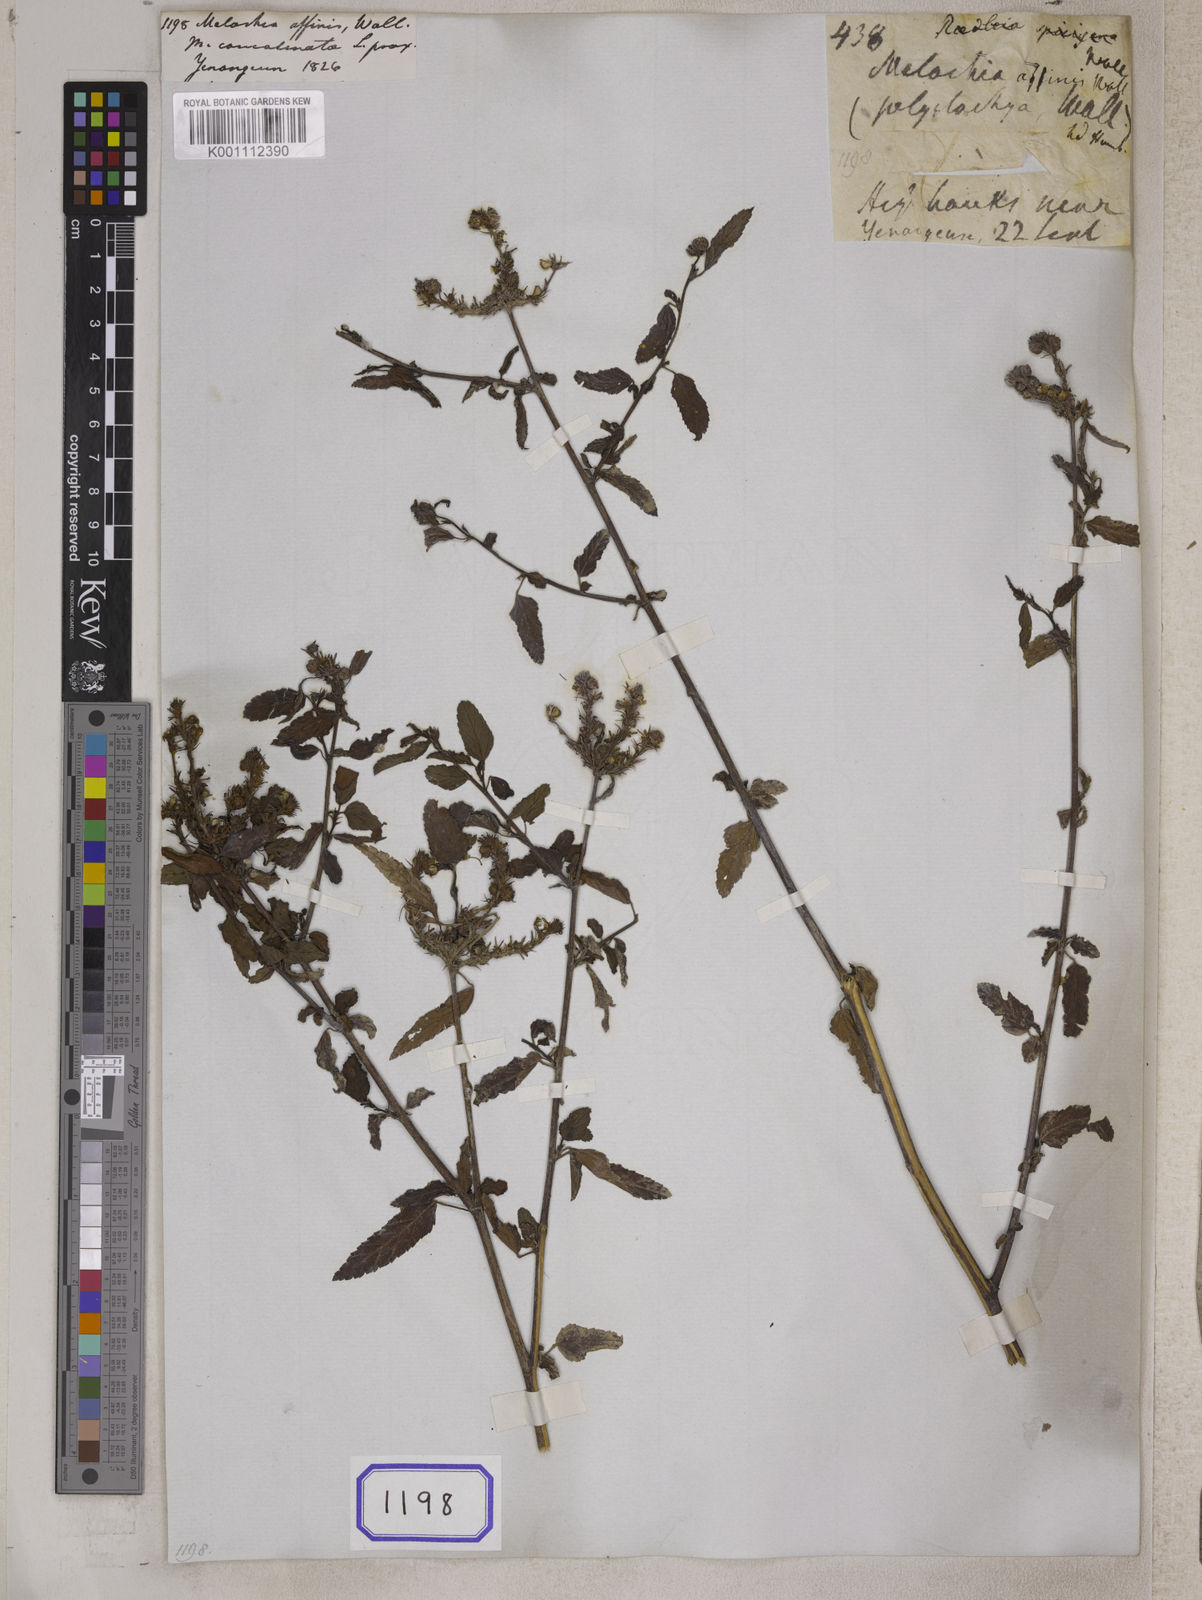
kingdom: Plantae
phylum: Tracheophyta
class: Magnoliopsida
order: Malvales
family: Malvaceae
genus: Melochia
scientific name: Melochia corchorifolia
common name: Chocolateweed
